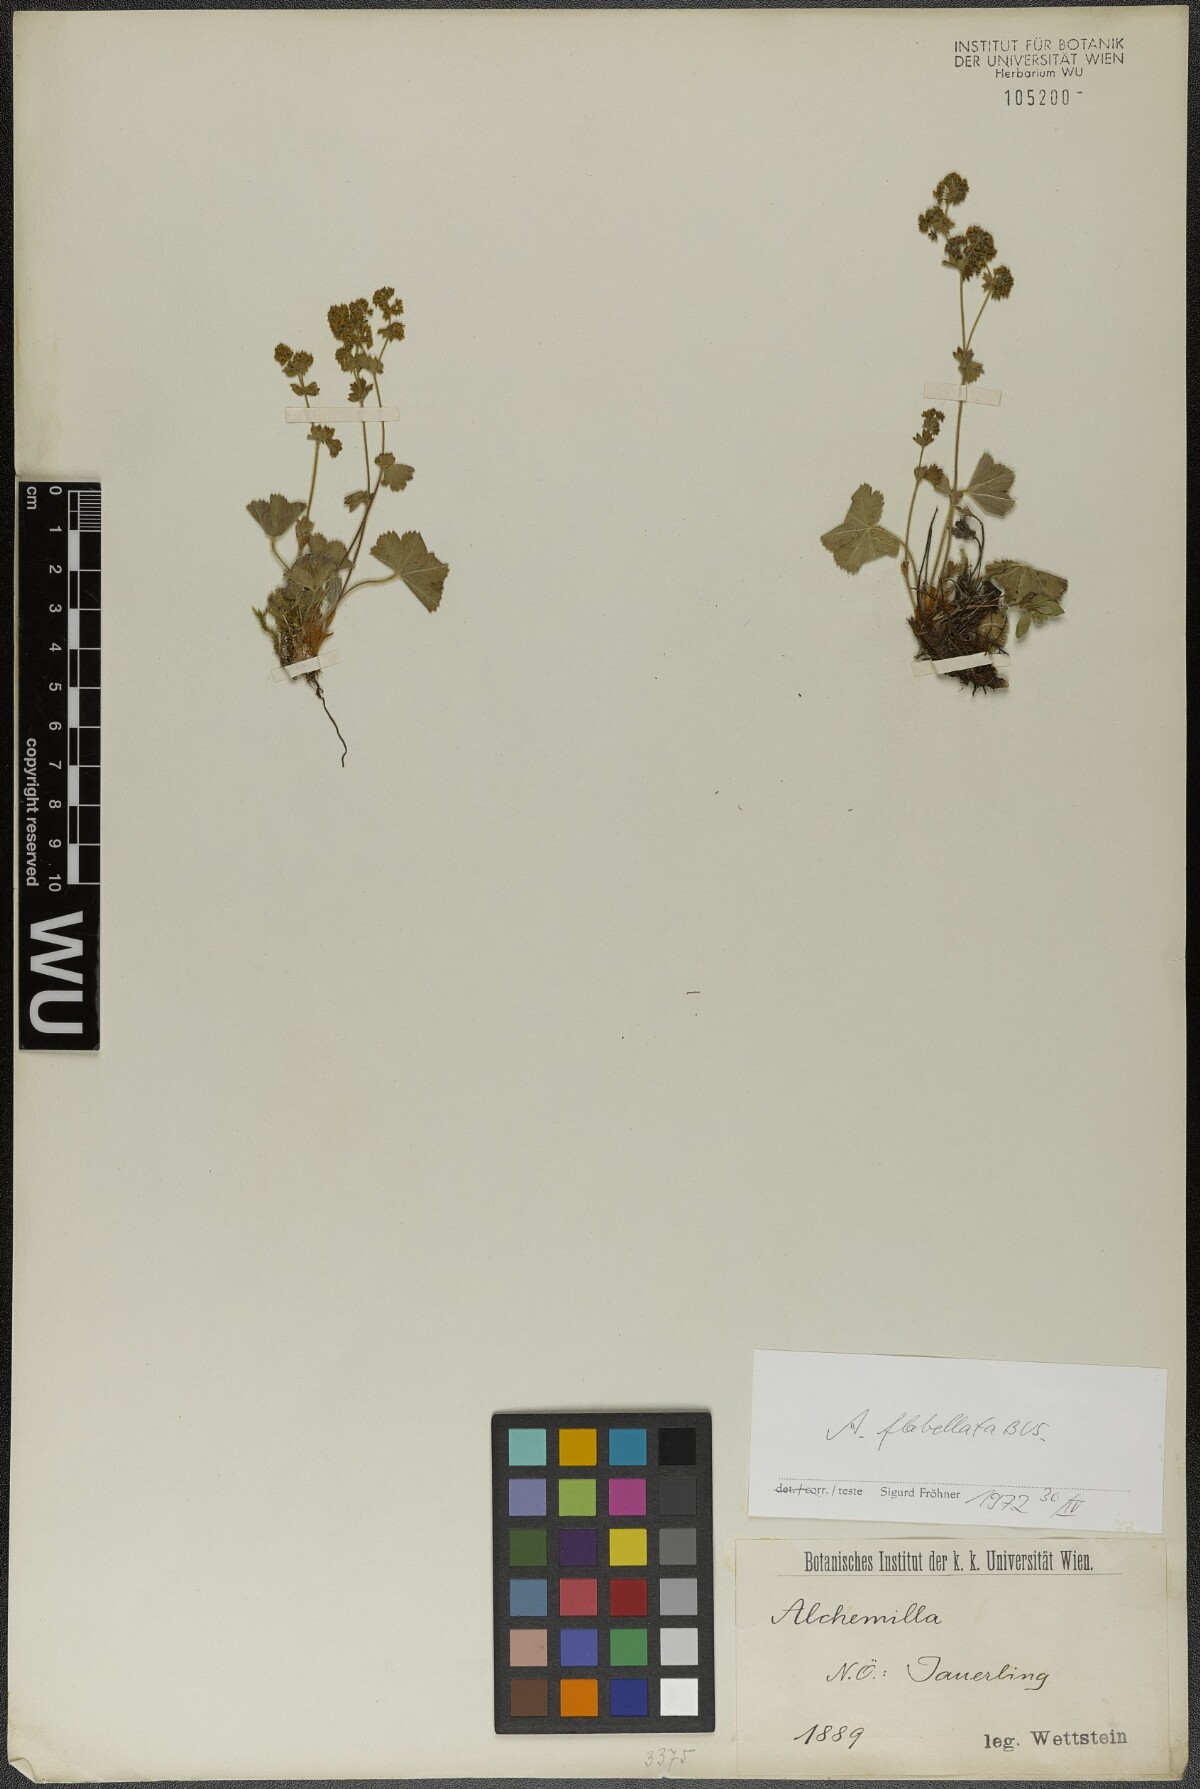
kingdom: Plantae
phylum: Tracheophyta
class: Magnoliopsida
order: Rosales
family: Rosaceae
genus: Alchemilla
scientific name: Alchemilla flabellata
